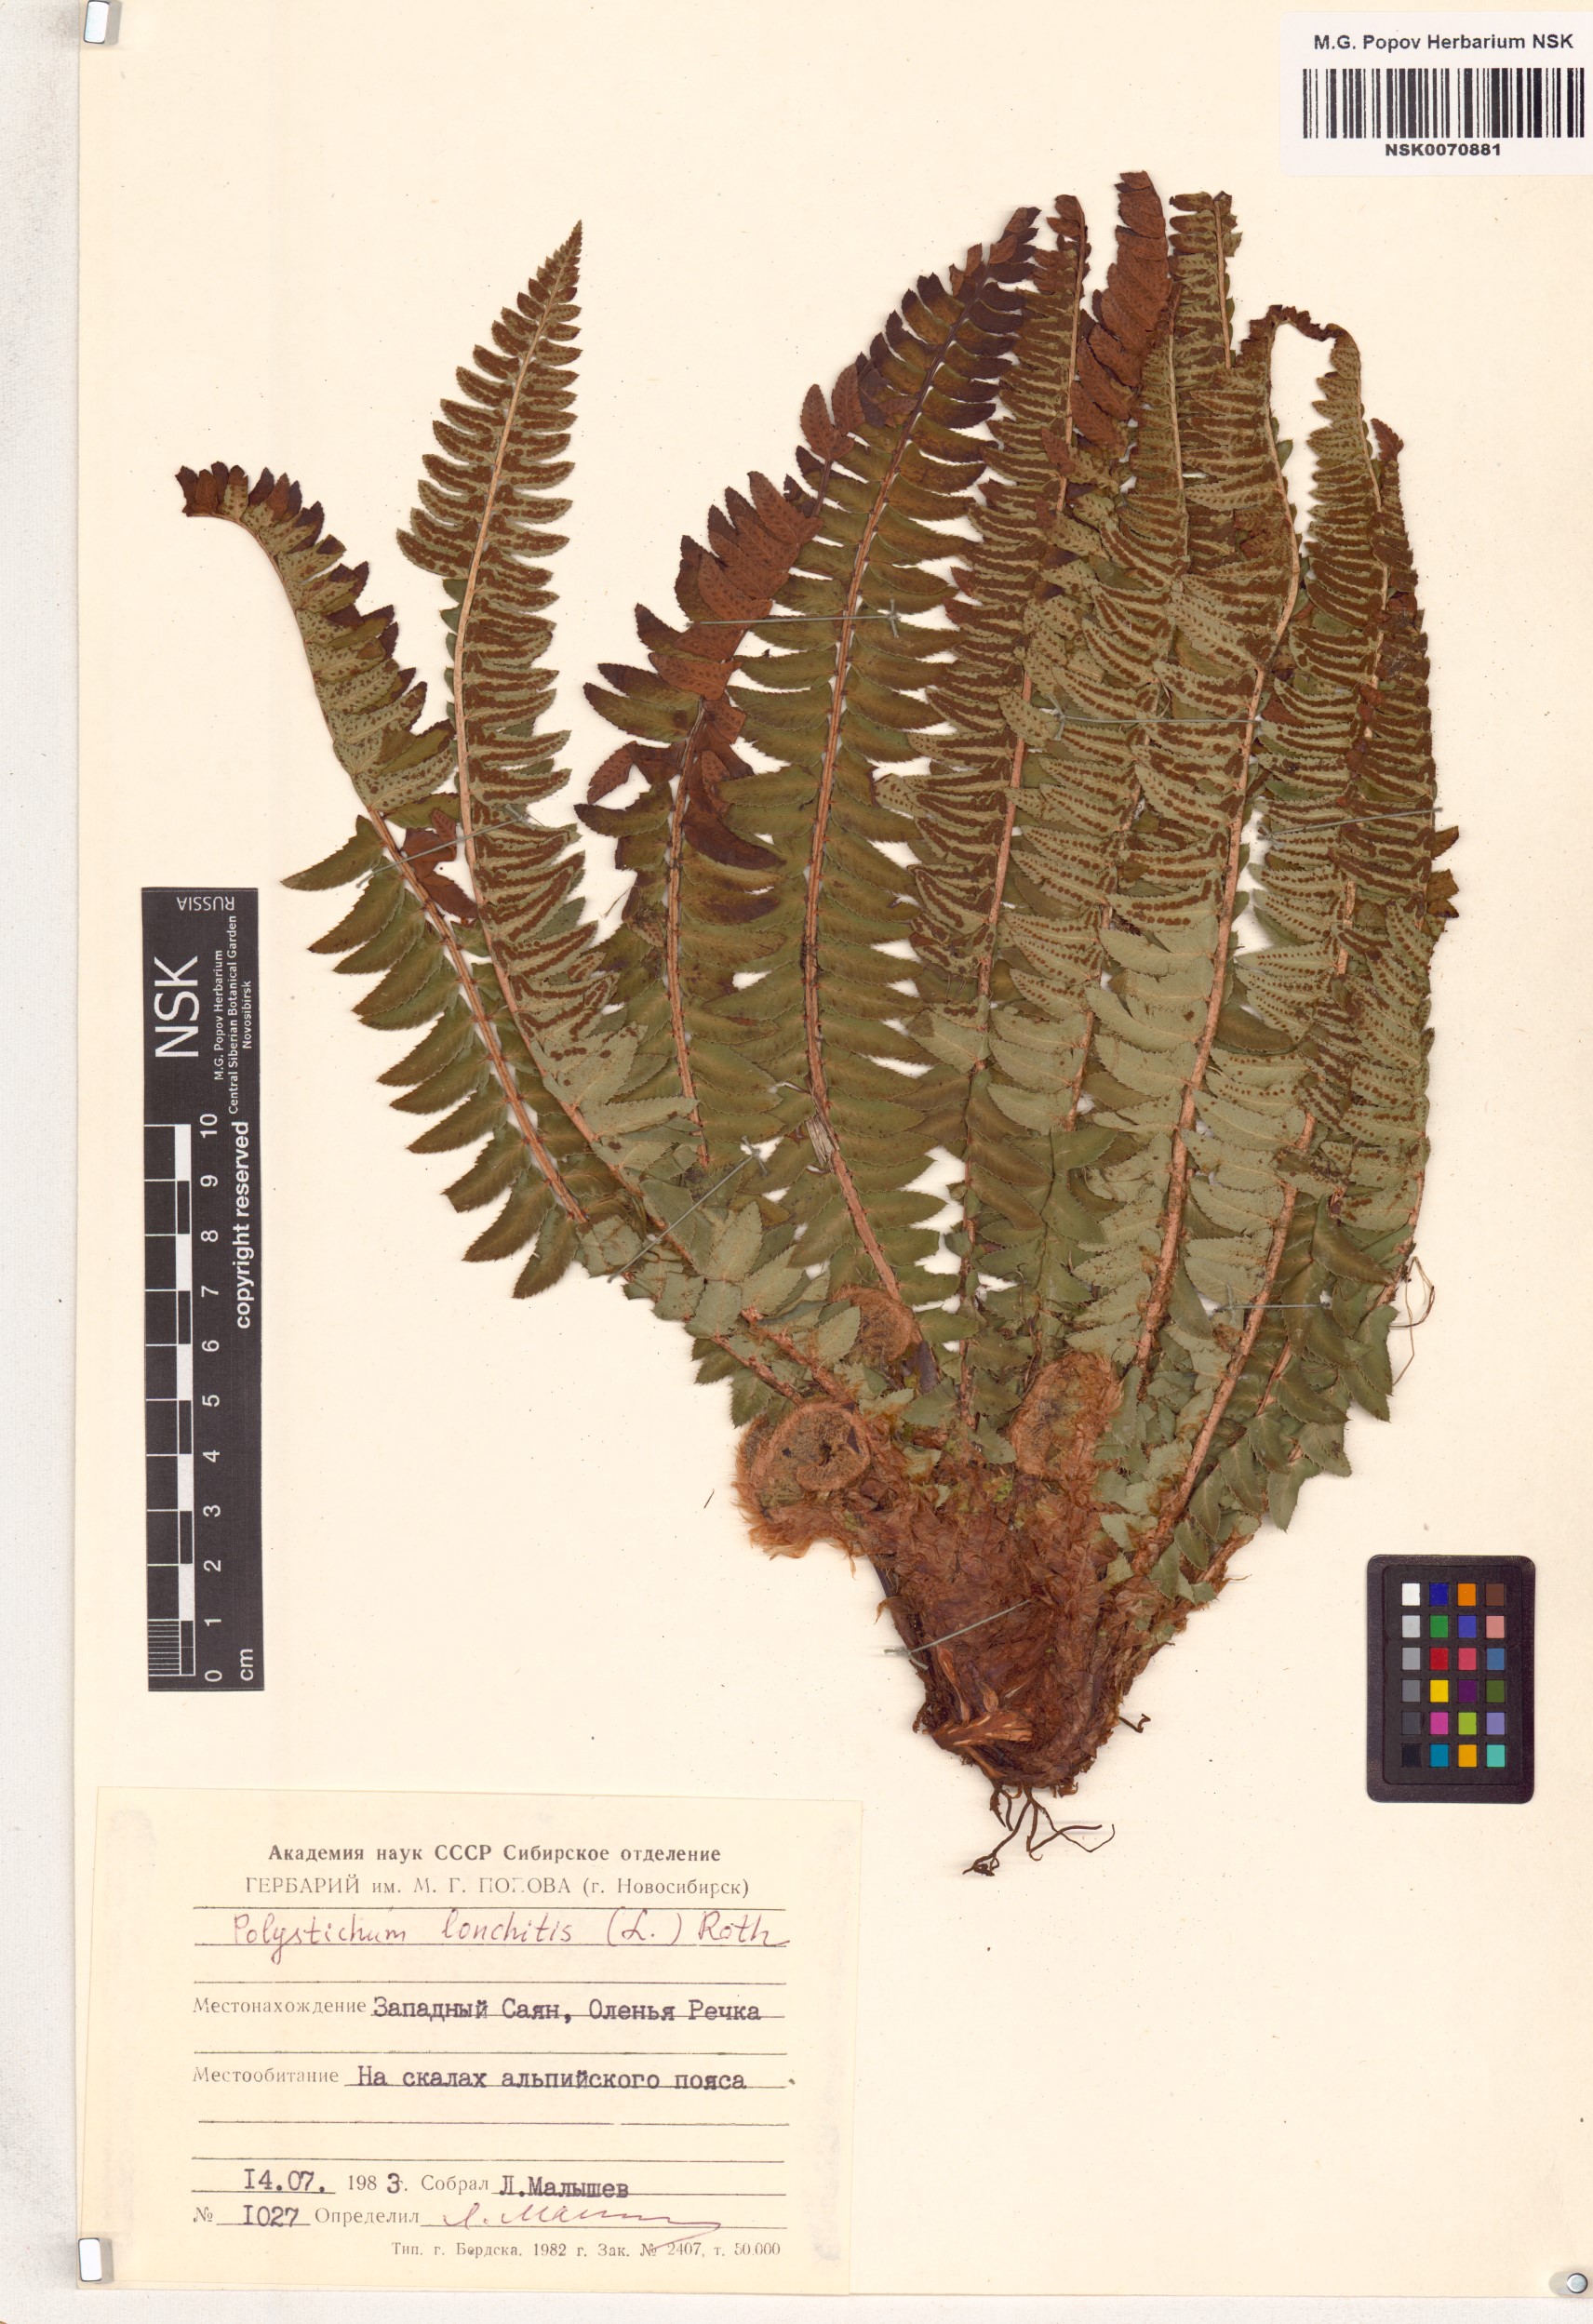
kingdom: Plantae
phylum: Tracheophyta
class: Polypodiopsida
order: Polypodiales
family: Dryopteridaceae
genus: Polystichum
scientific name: Polystichum lonchitis
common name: Holly fern
